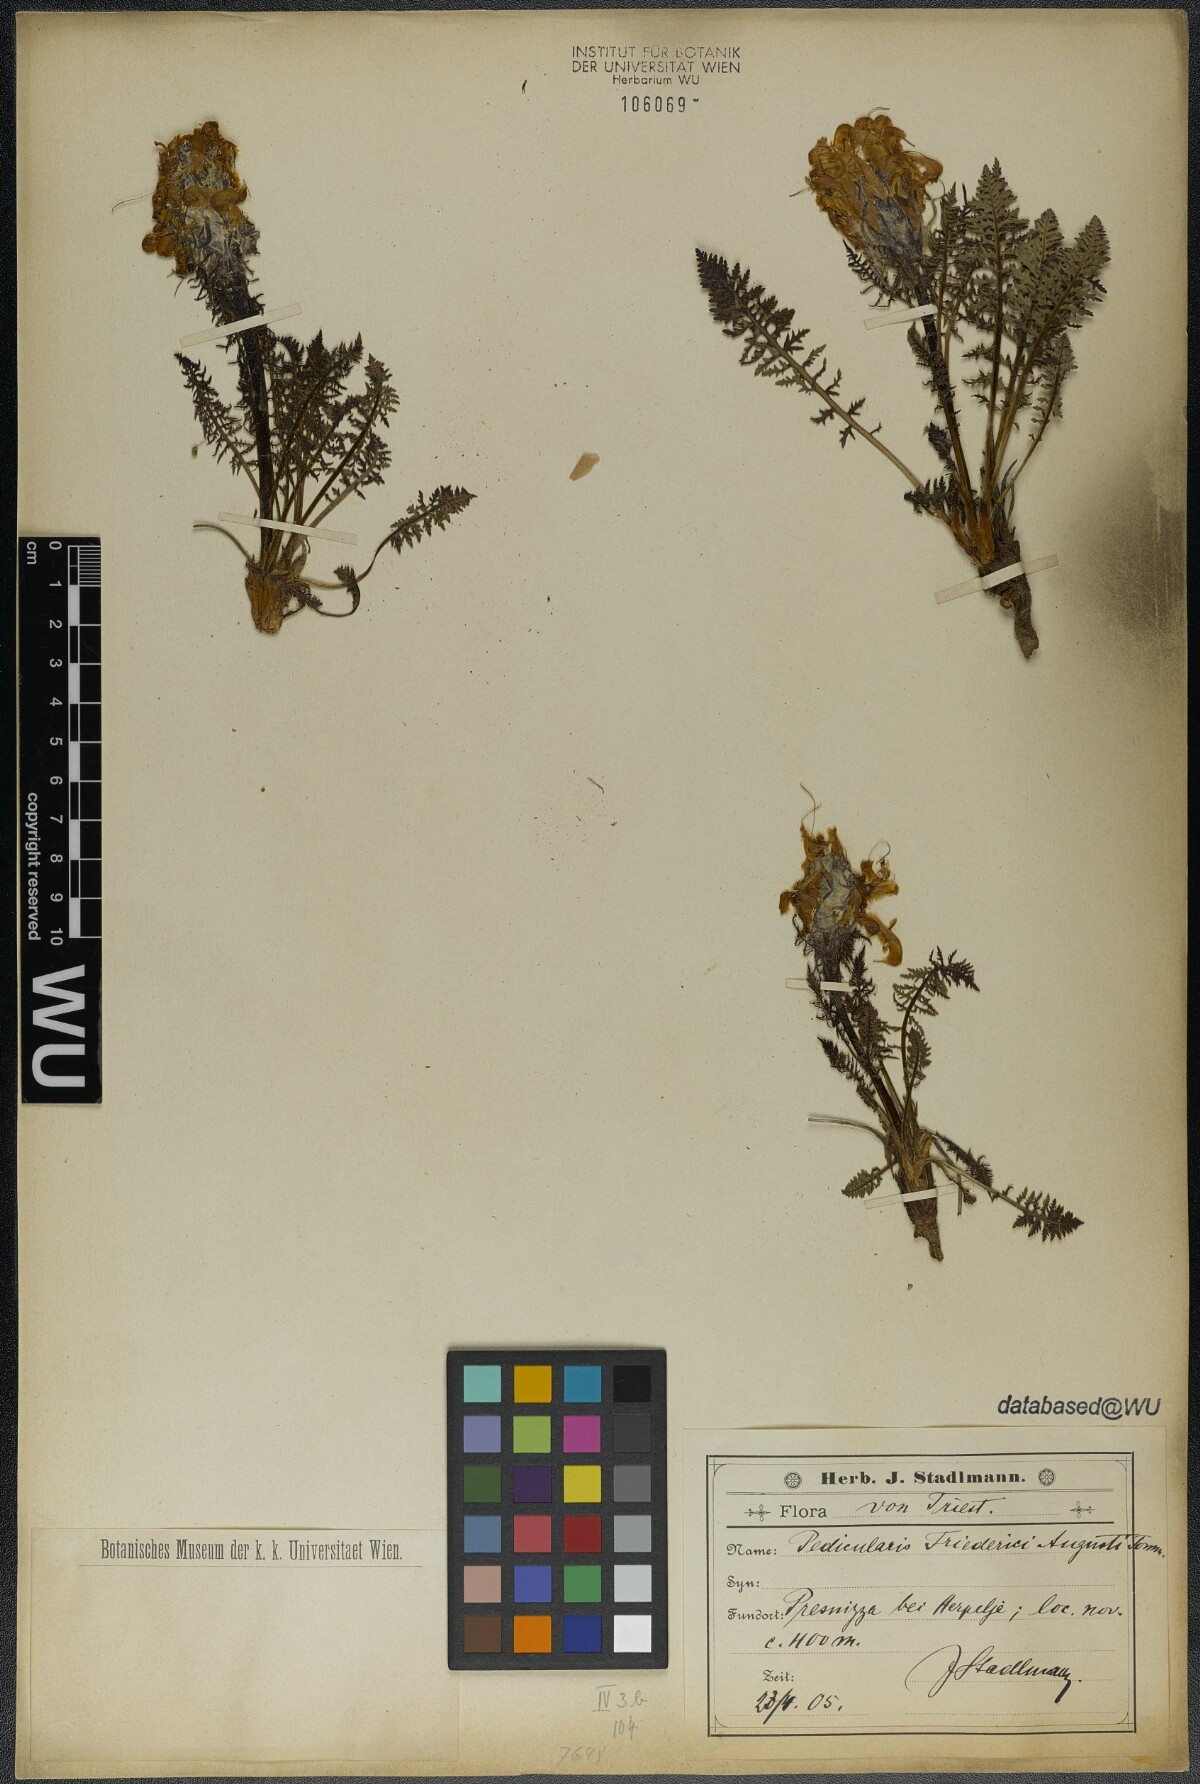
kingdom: Plantae
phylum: Tracheophyta
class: Magnoliopsida
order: Lamiales
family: Orobanchaceae
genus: Pedicularis
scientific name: Pedicularis friderici-augusti
